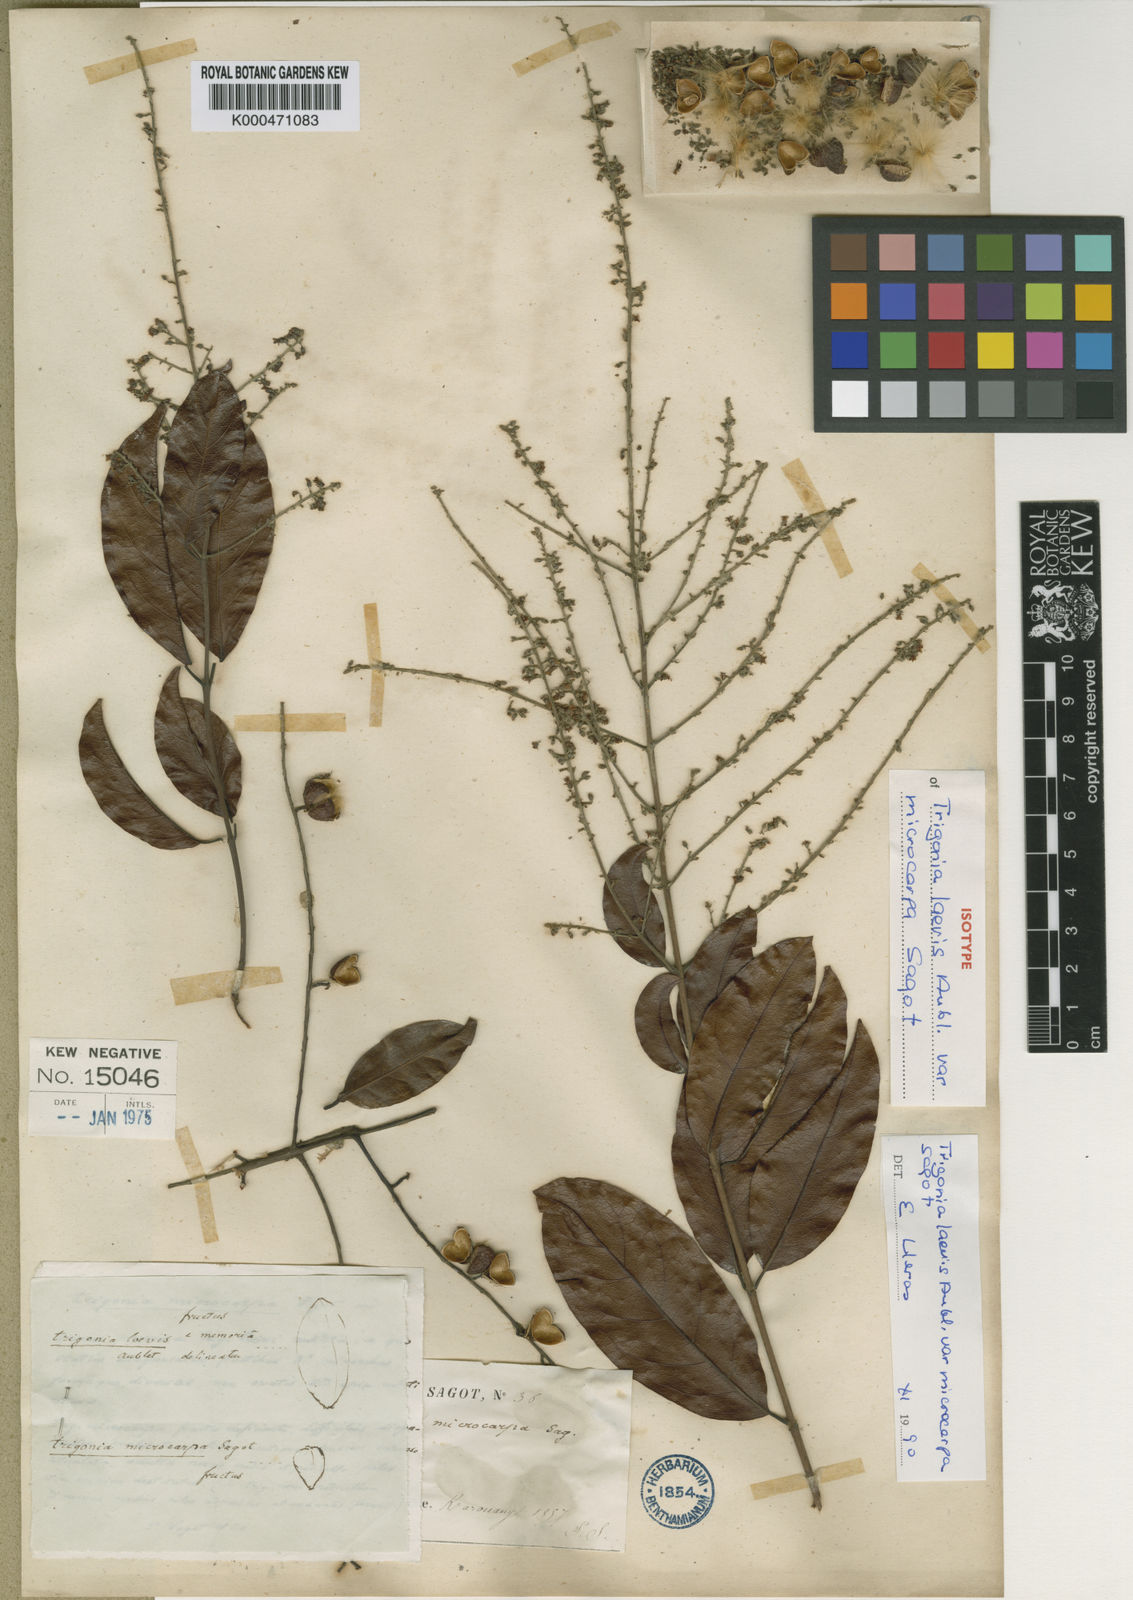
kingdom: Plantae
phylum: Tracheophyta
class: Magnoliopsida
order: Malpighiales
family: Trigoniaceae
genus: Trigonia
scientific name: Trigonia microcarpa
